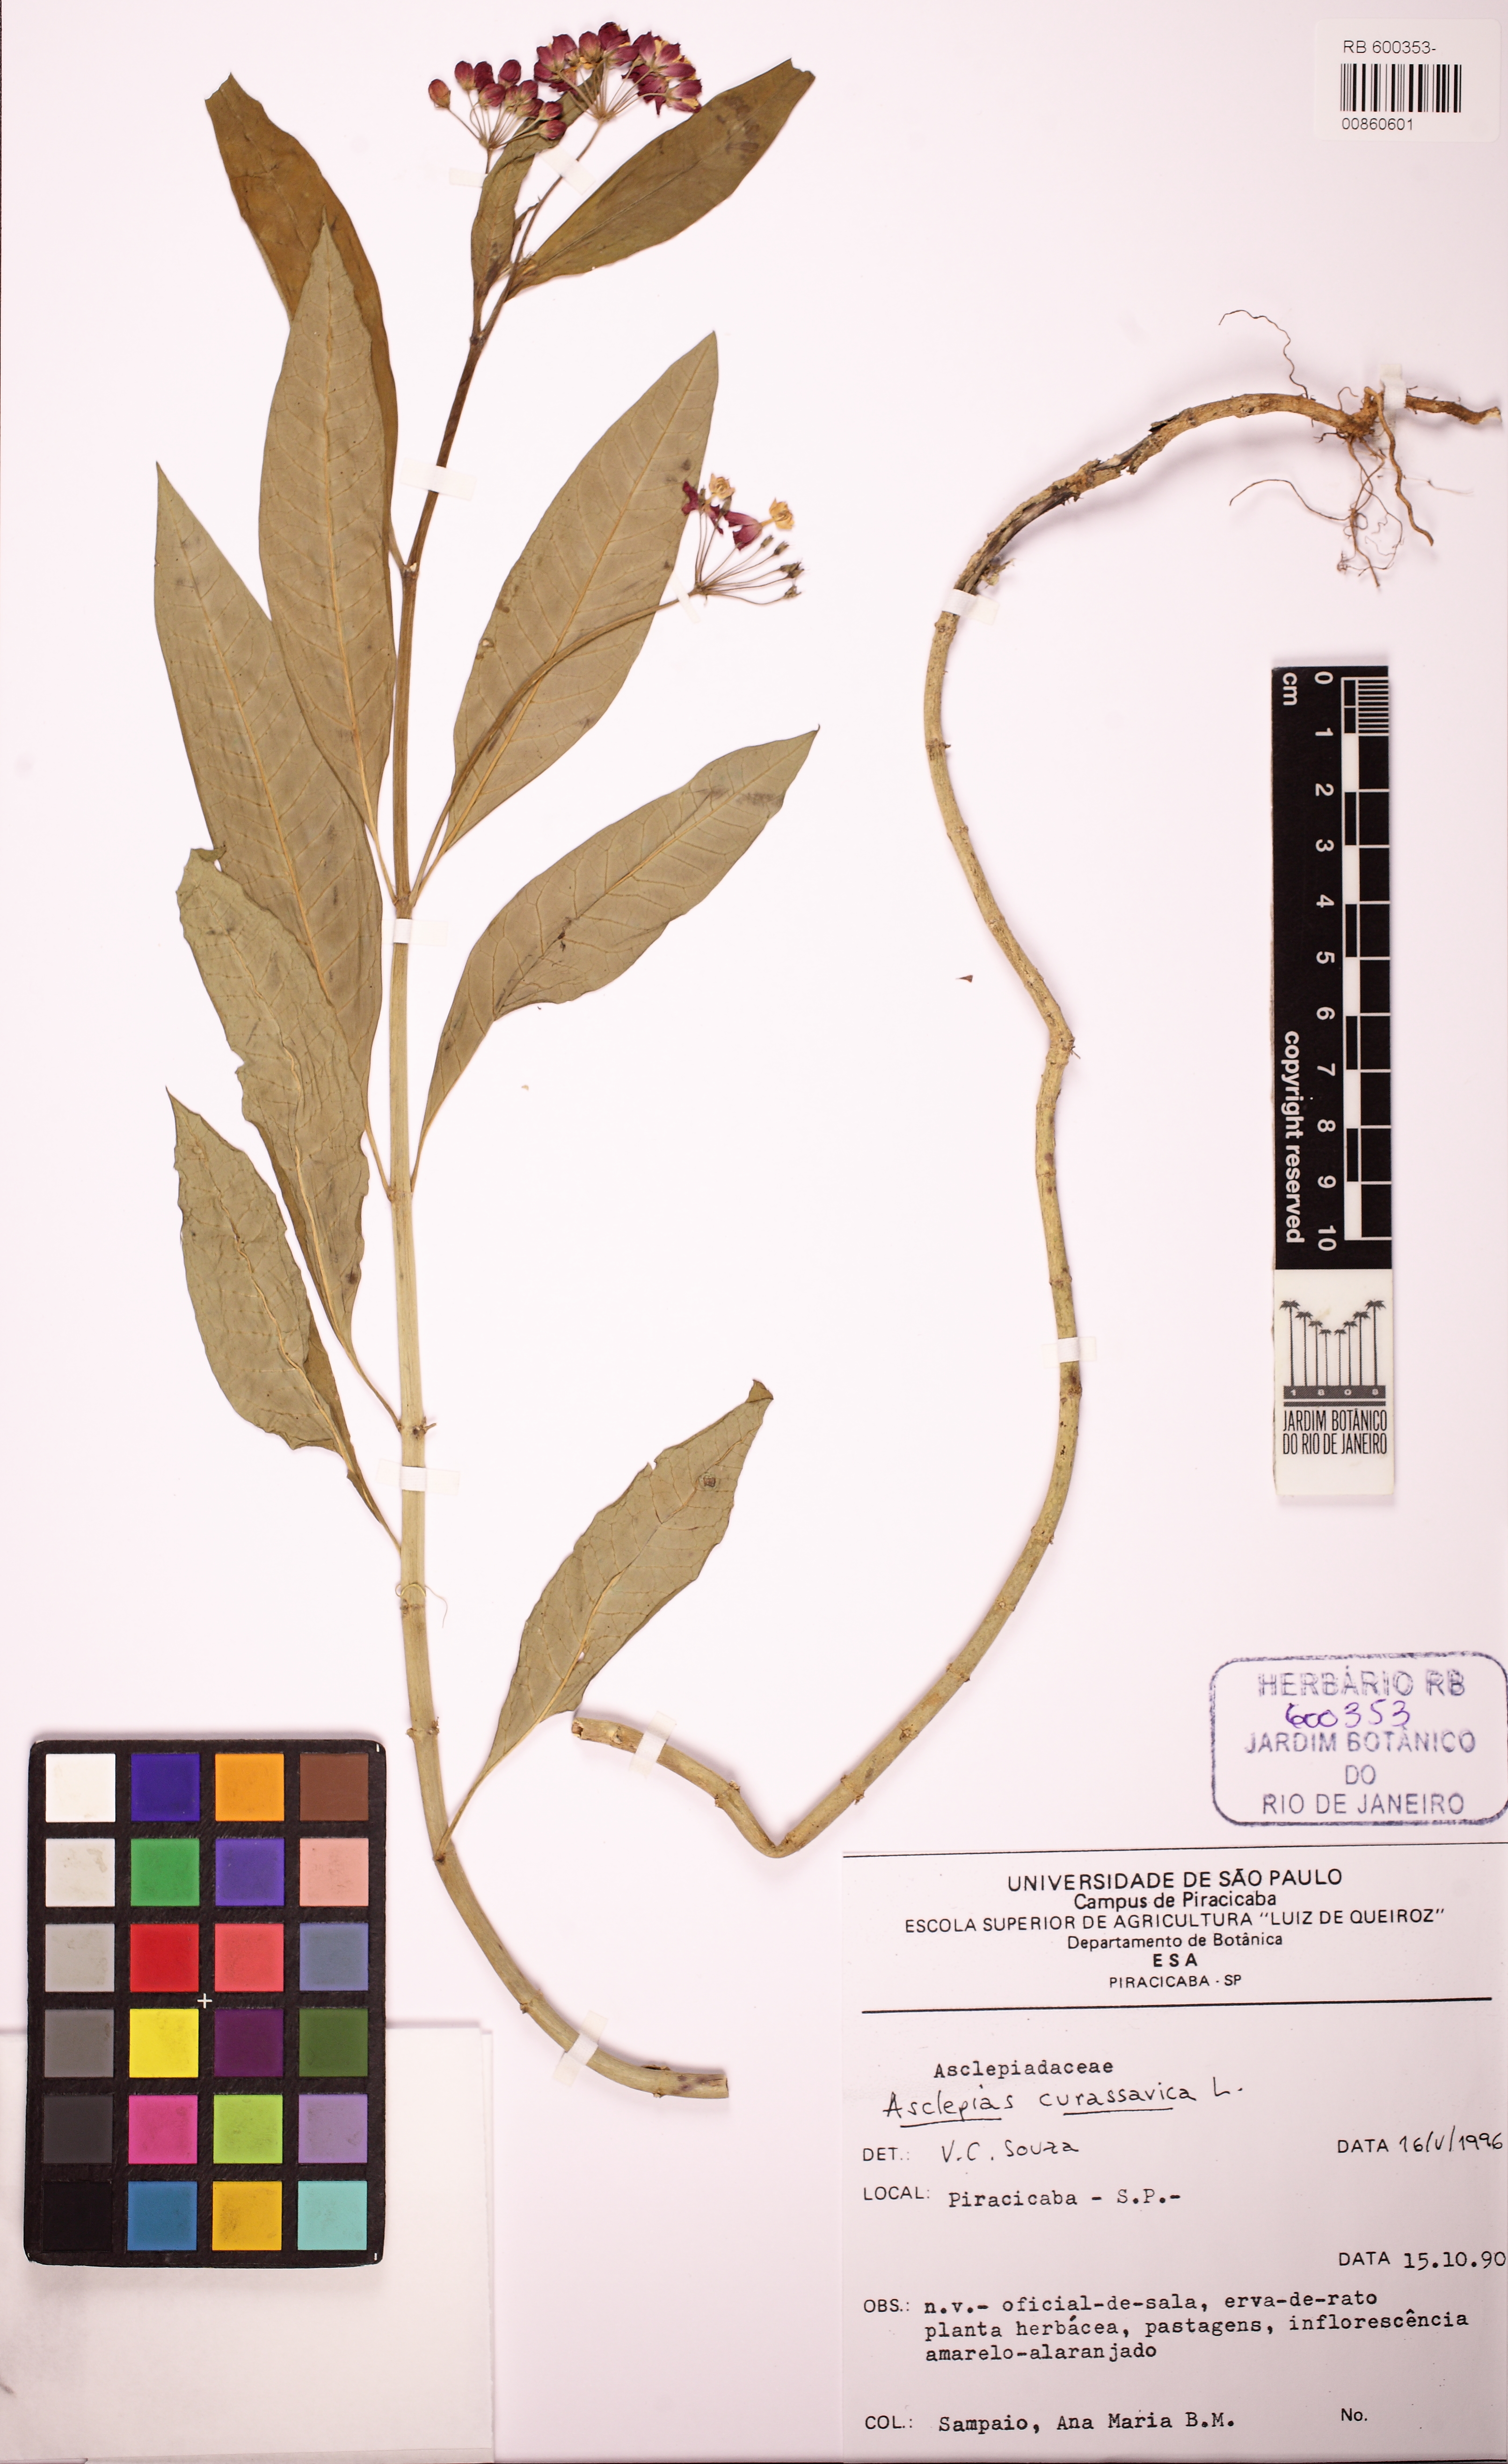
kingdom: Plantae
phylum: Tracheophyta
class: Magnoliopsida
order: Gentianales
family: Apocynaceae
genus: Asclepias
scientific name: Asclepias curassavica
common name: Bloodflower
